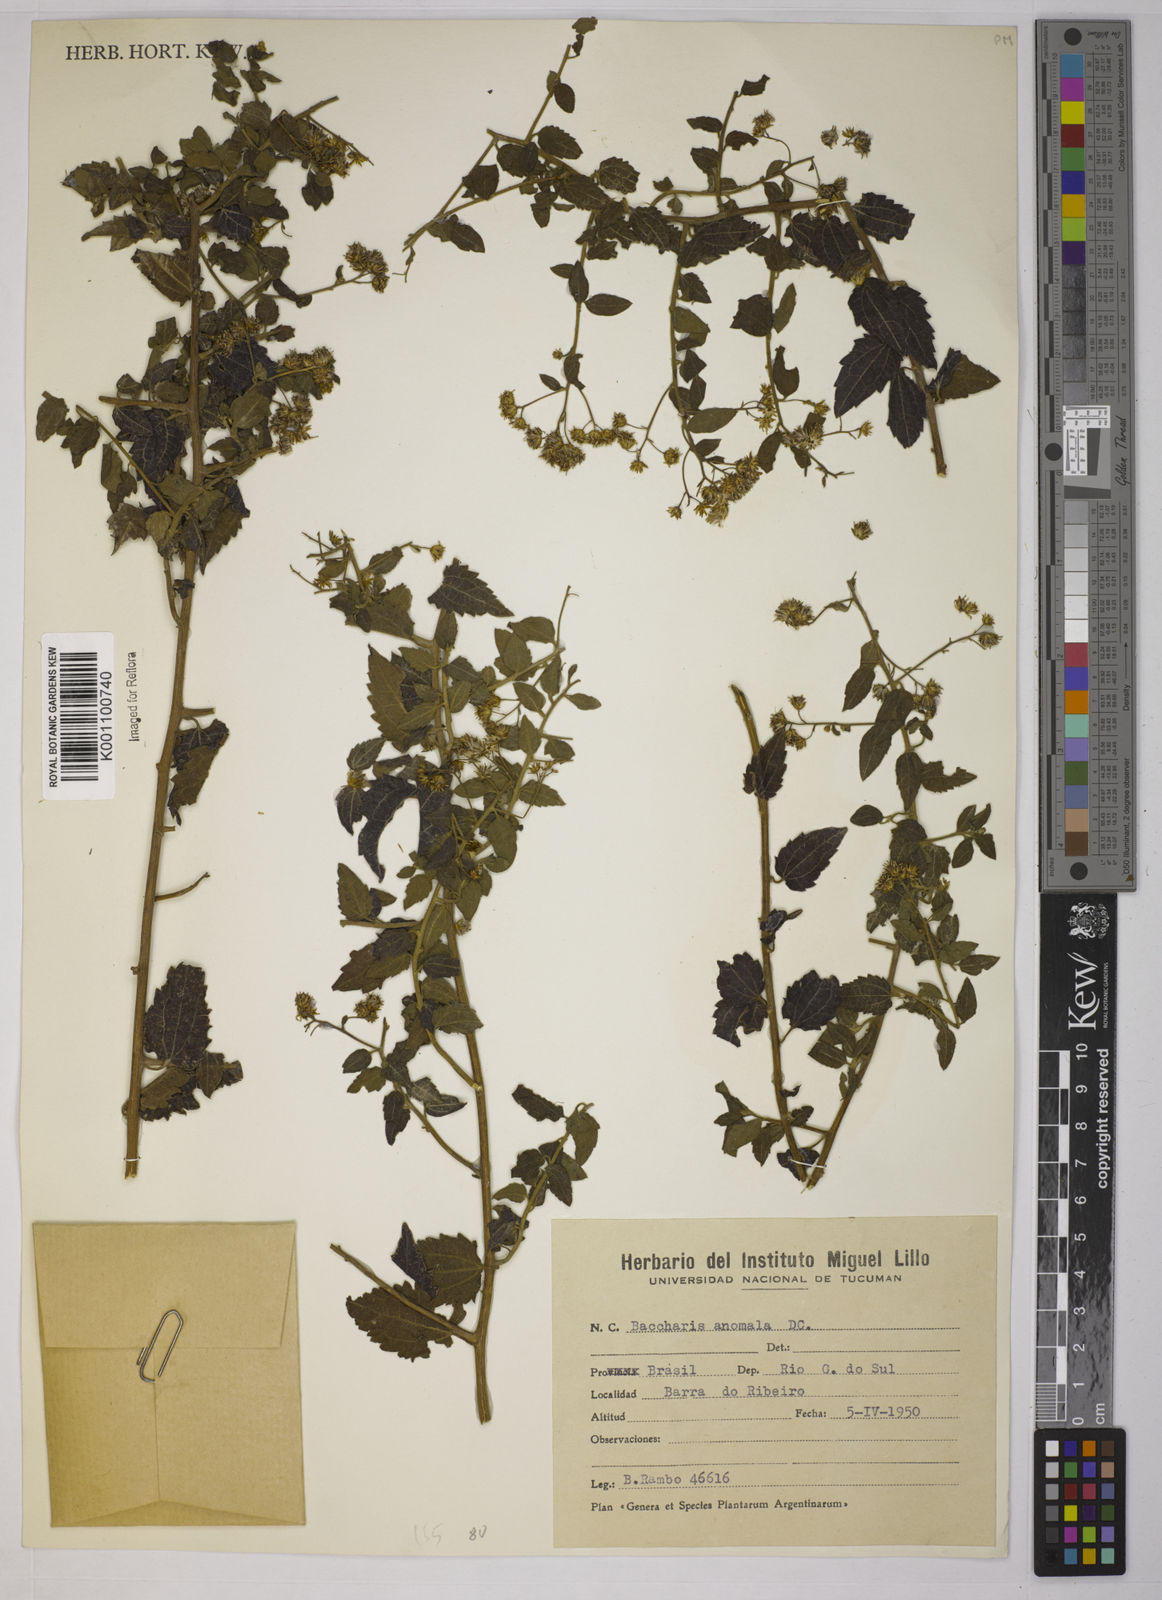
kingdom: Plantae
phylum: Tracheophyta
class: Magnoliopsida
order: Asterales
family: Asteraceae
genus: Baccharis
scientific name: Baccharis anomala
